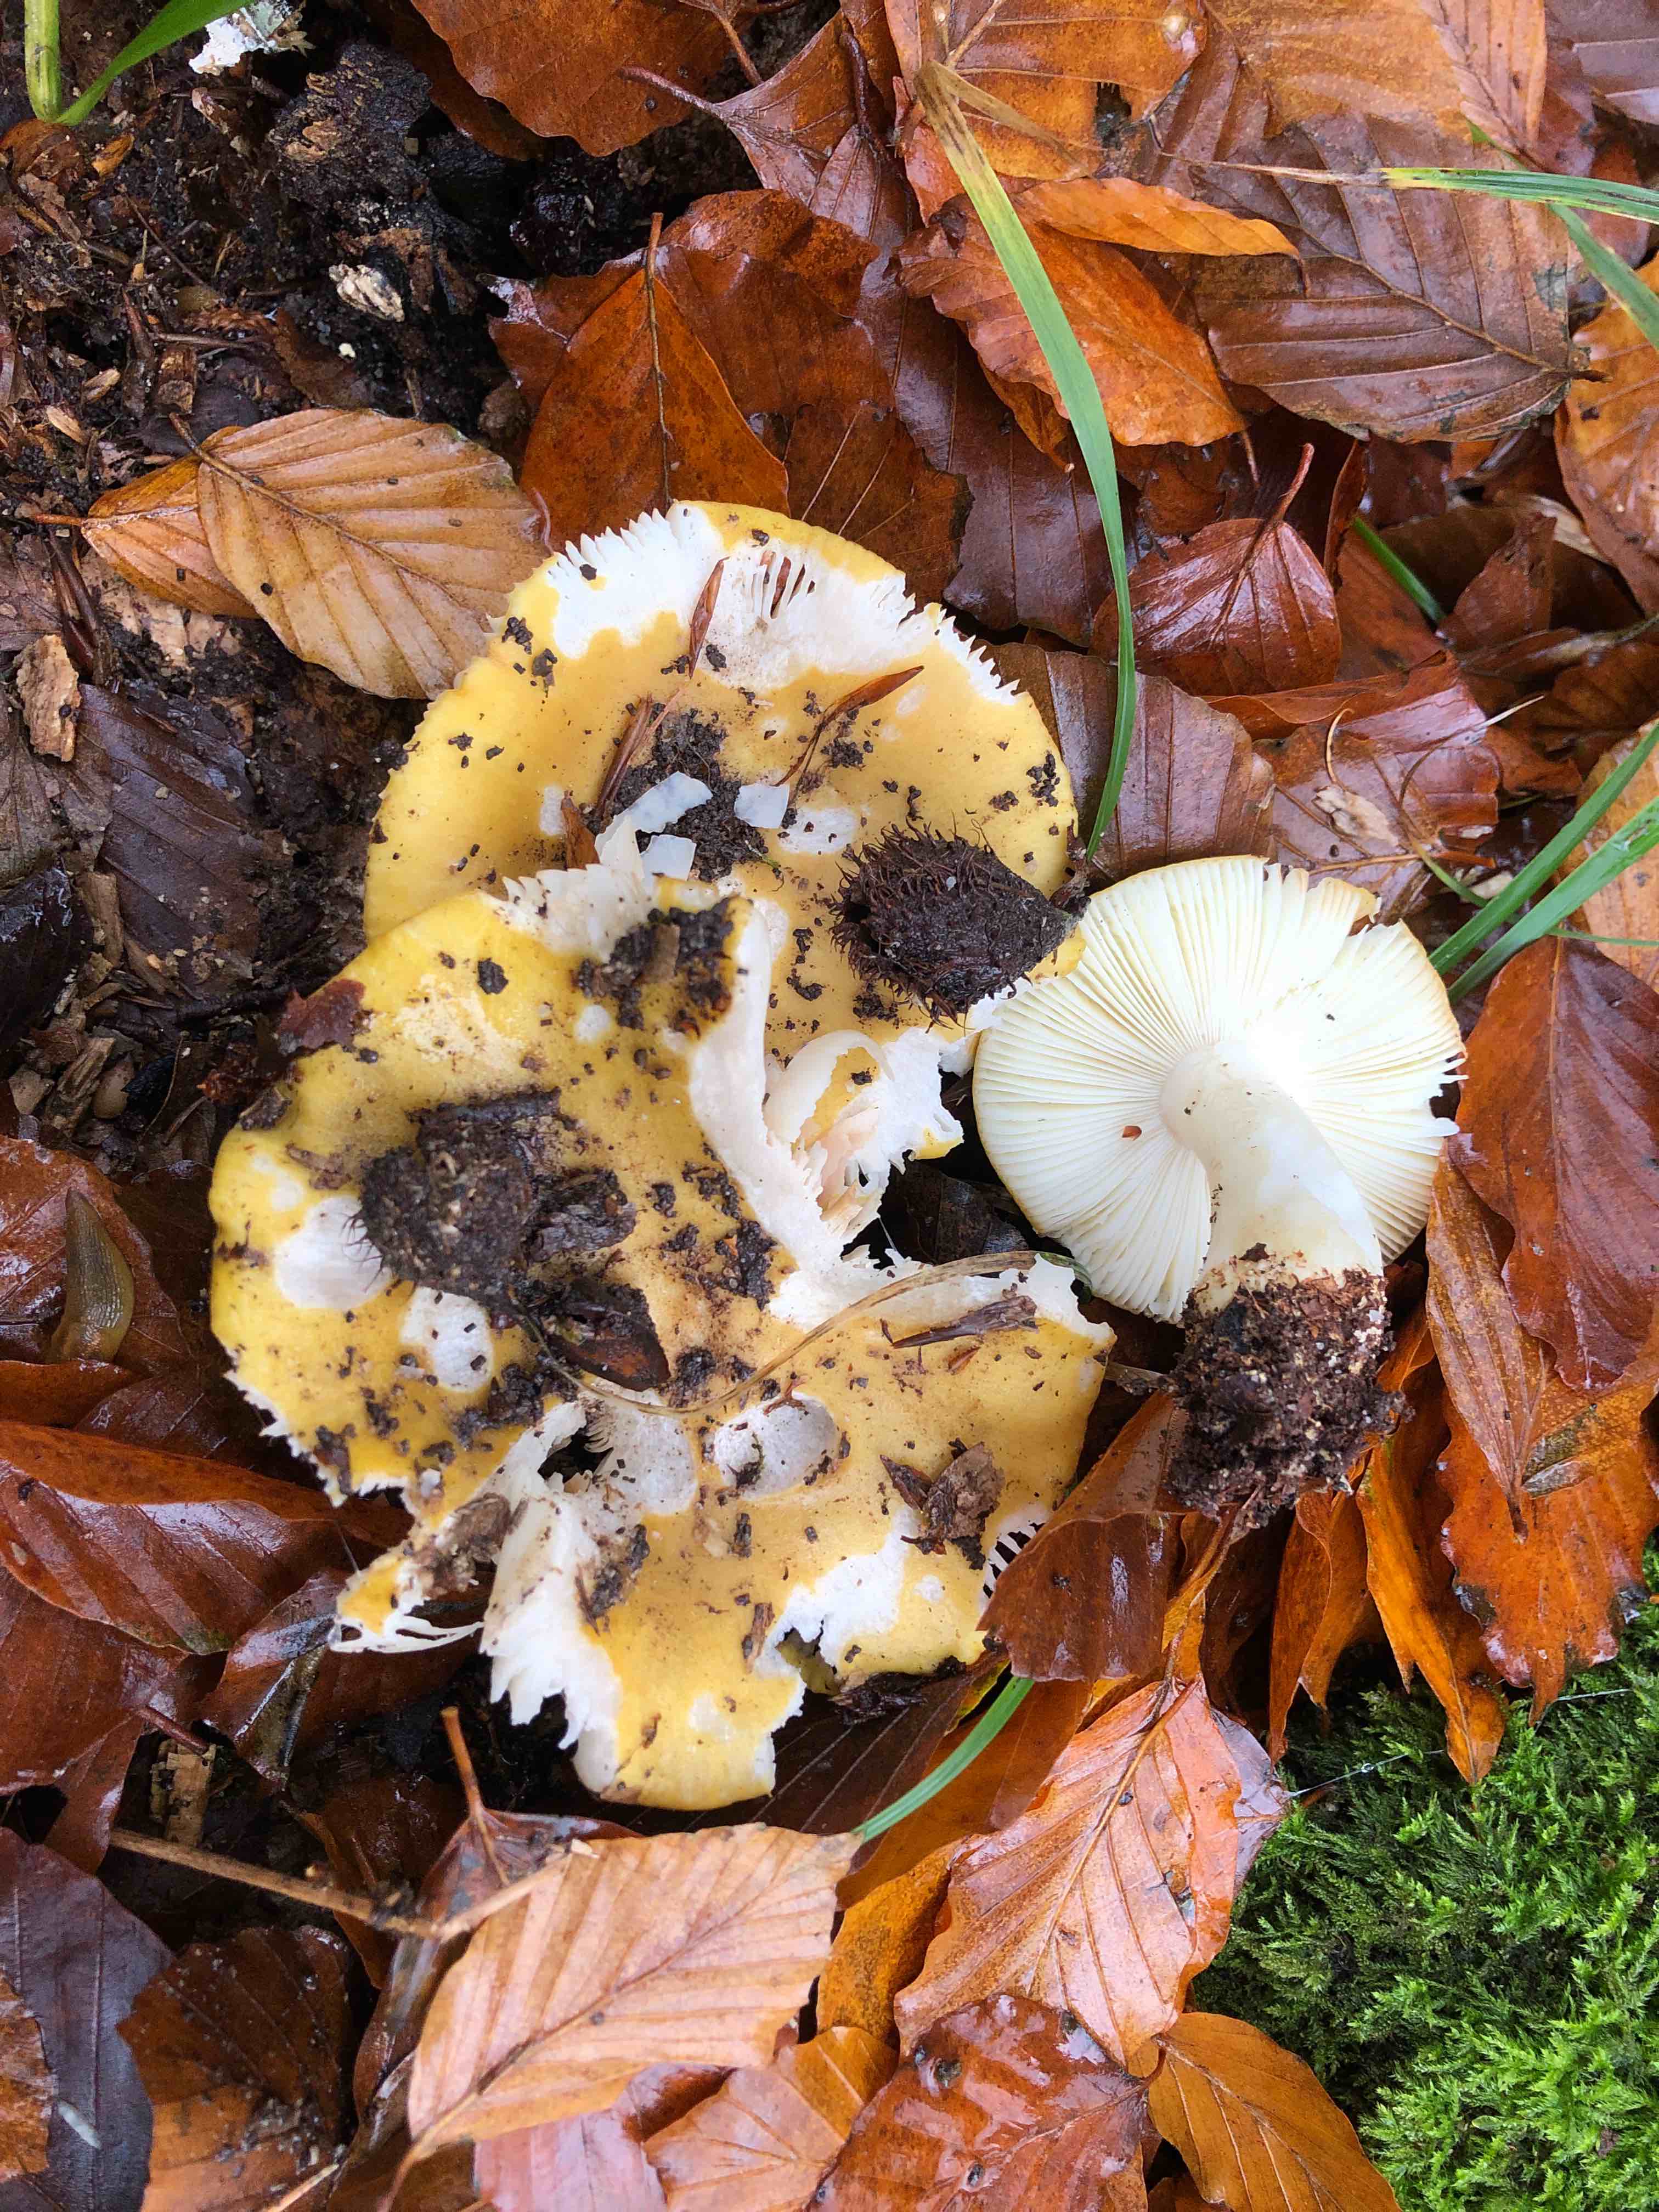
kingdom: Fungi
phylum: Basidiomycota
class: Agaricomycetes
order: Russulales
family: Russulaceae
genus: Russula
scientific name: Russula ochroleuca
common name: okkergul skørhat
